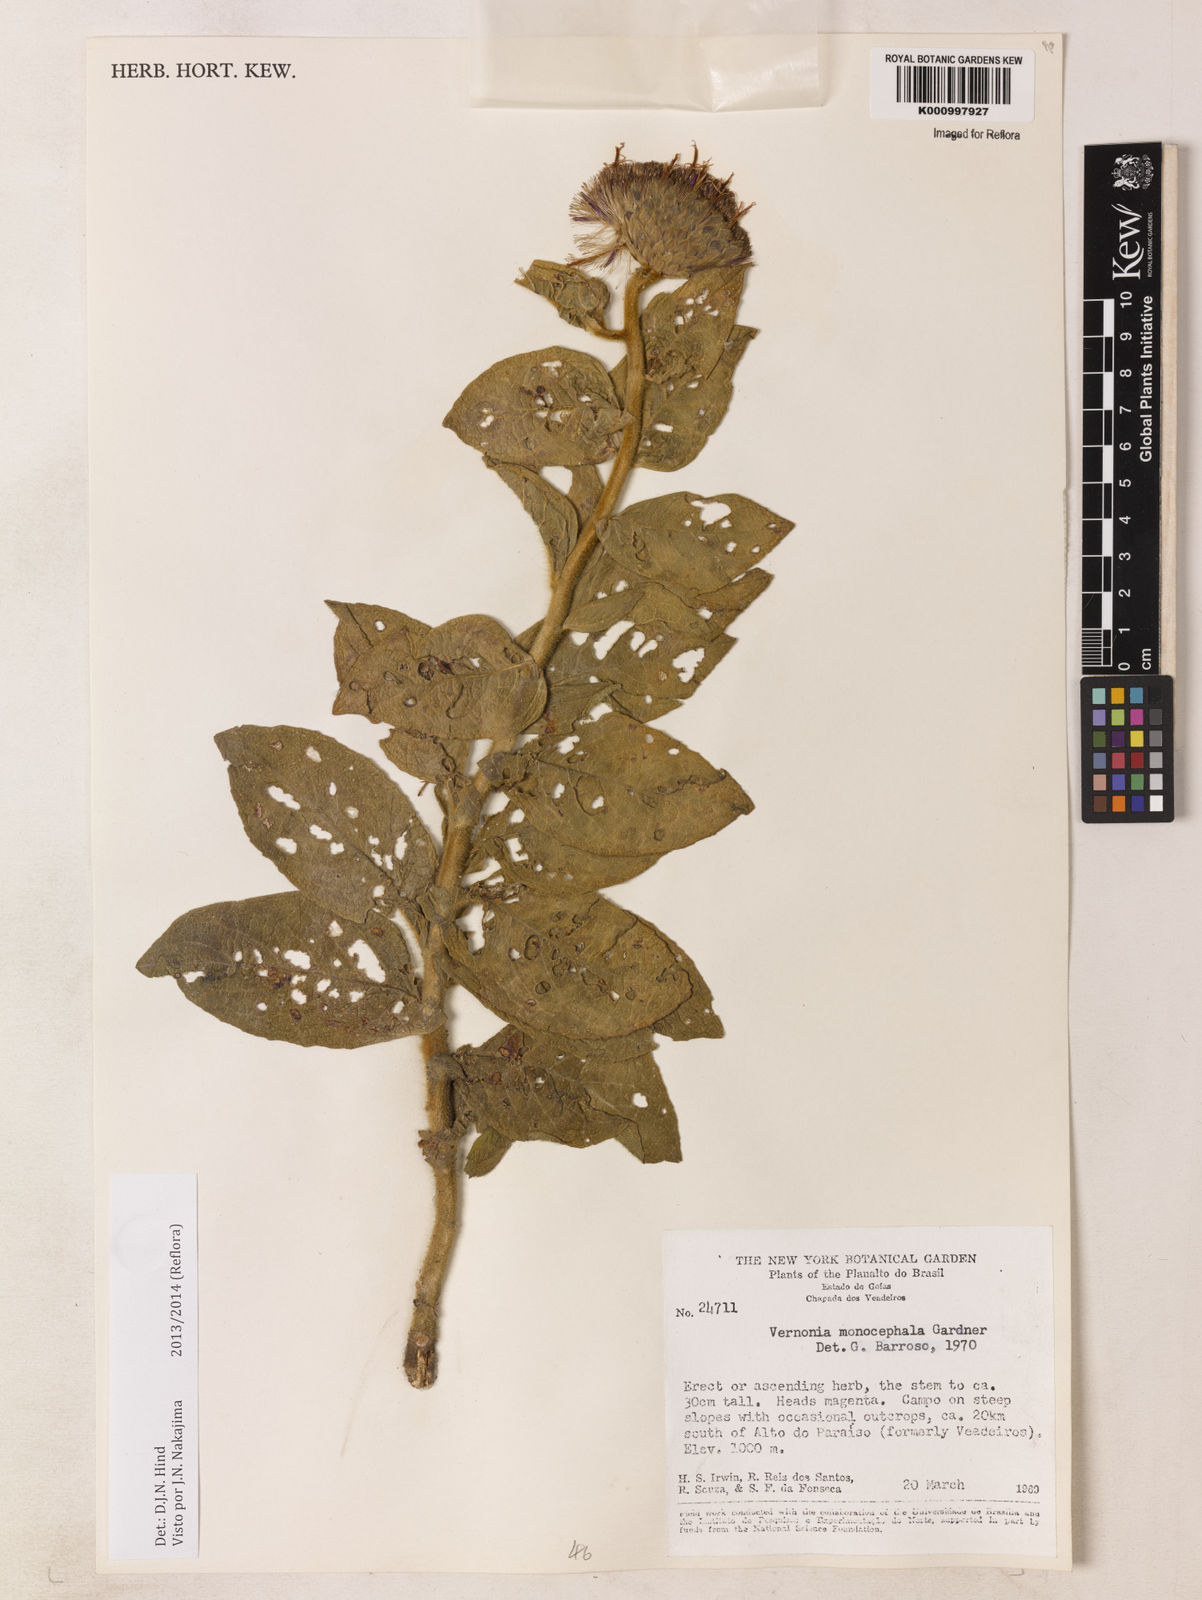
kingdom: Plantae
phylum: Tracheophyta
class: Magnoliopsida
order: Asterales
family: Asteraceae
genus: Lessingianthus
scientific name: Lessingianthus monocephalus
